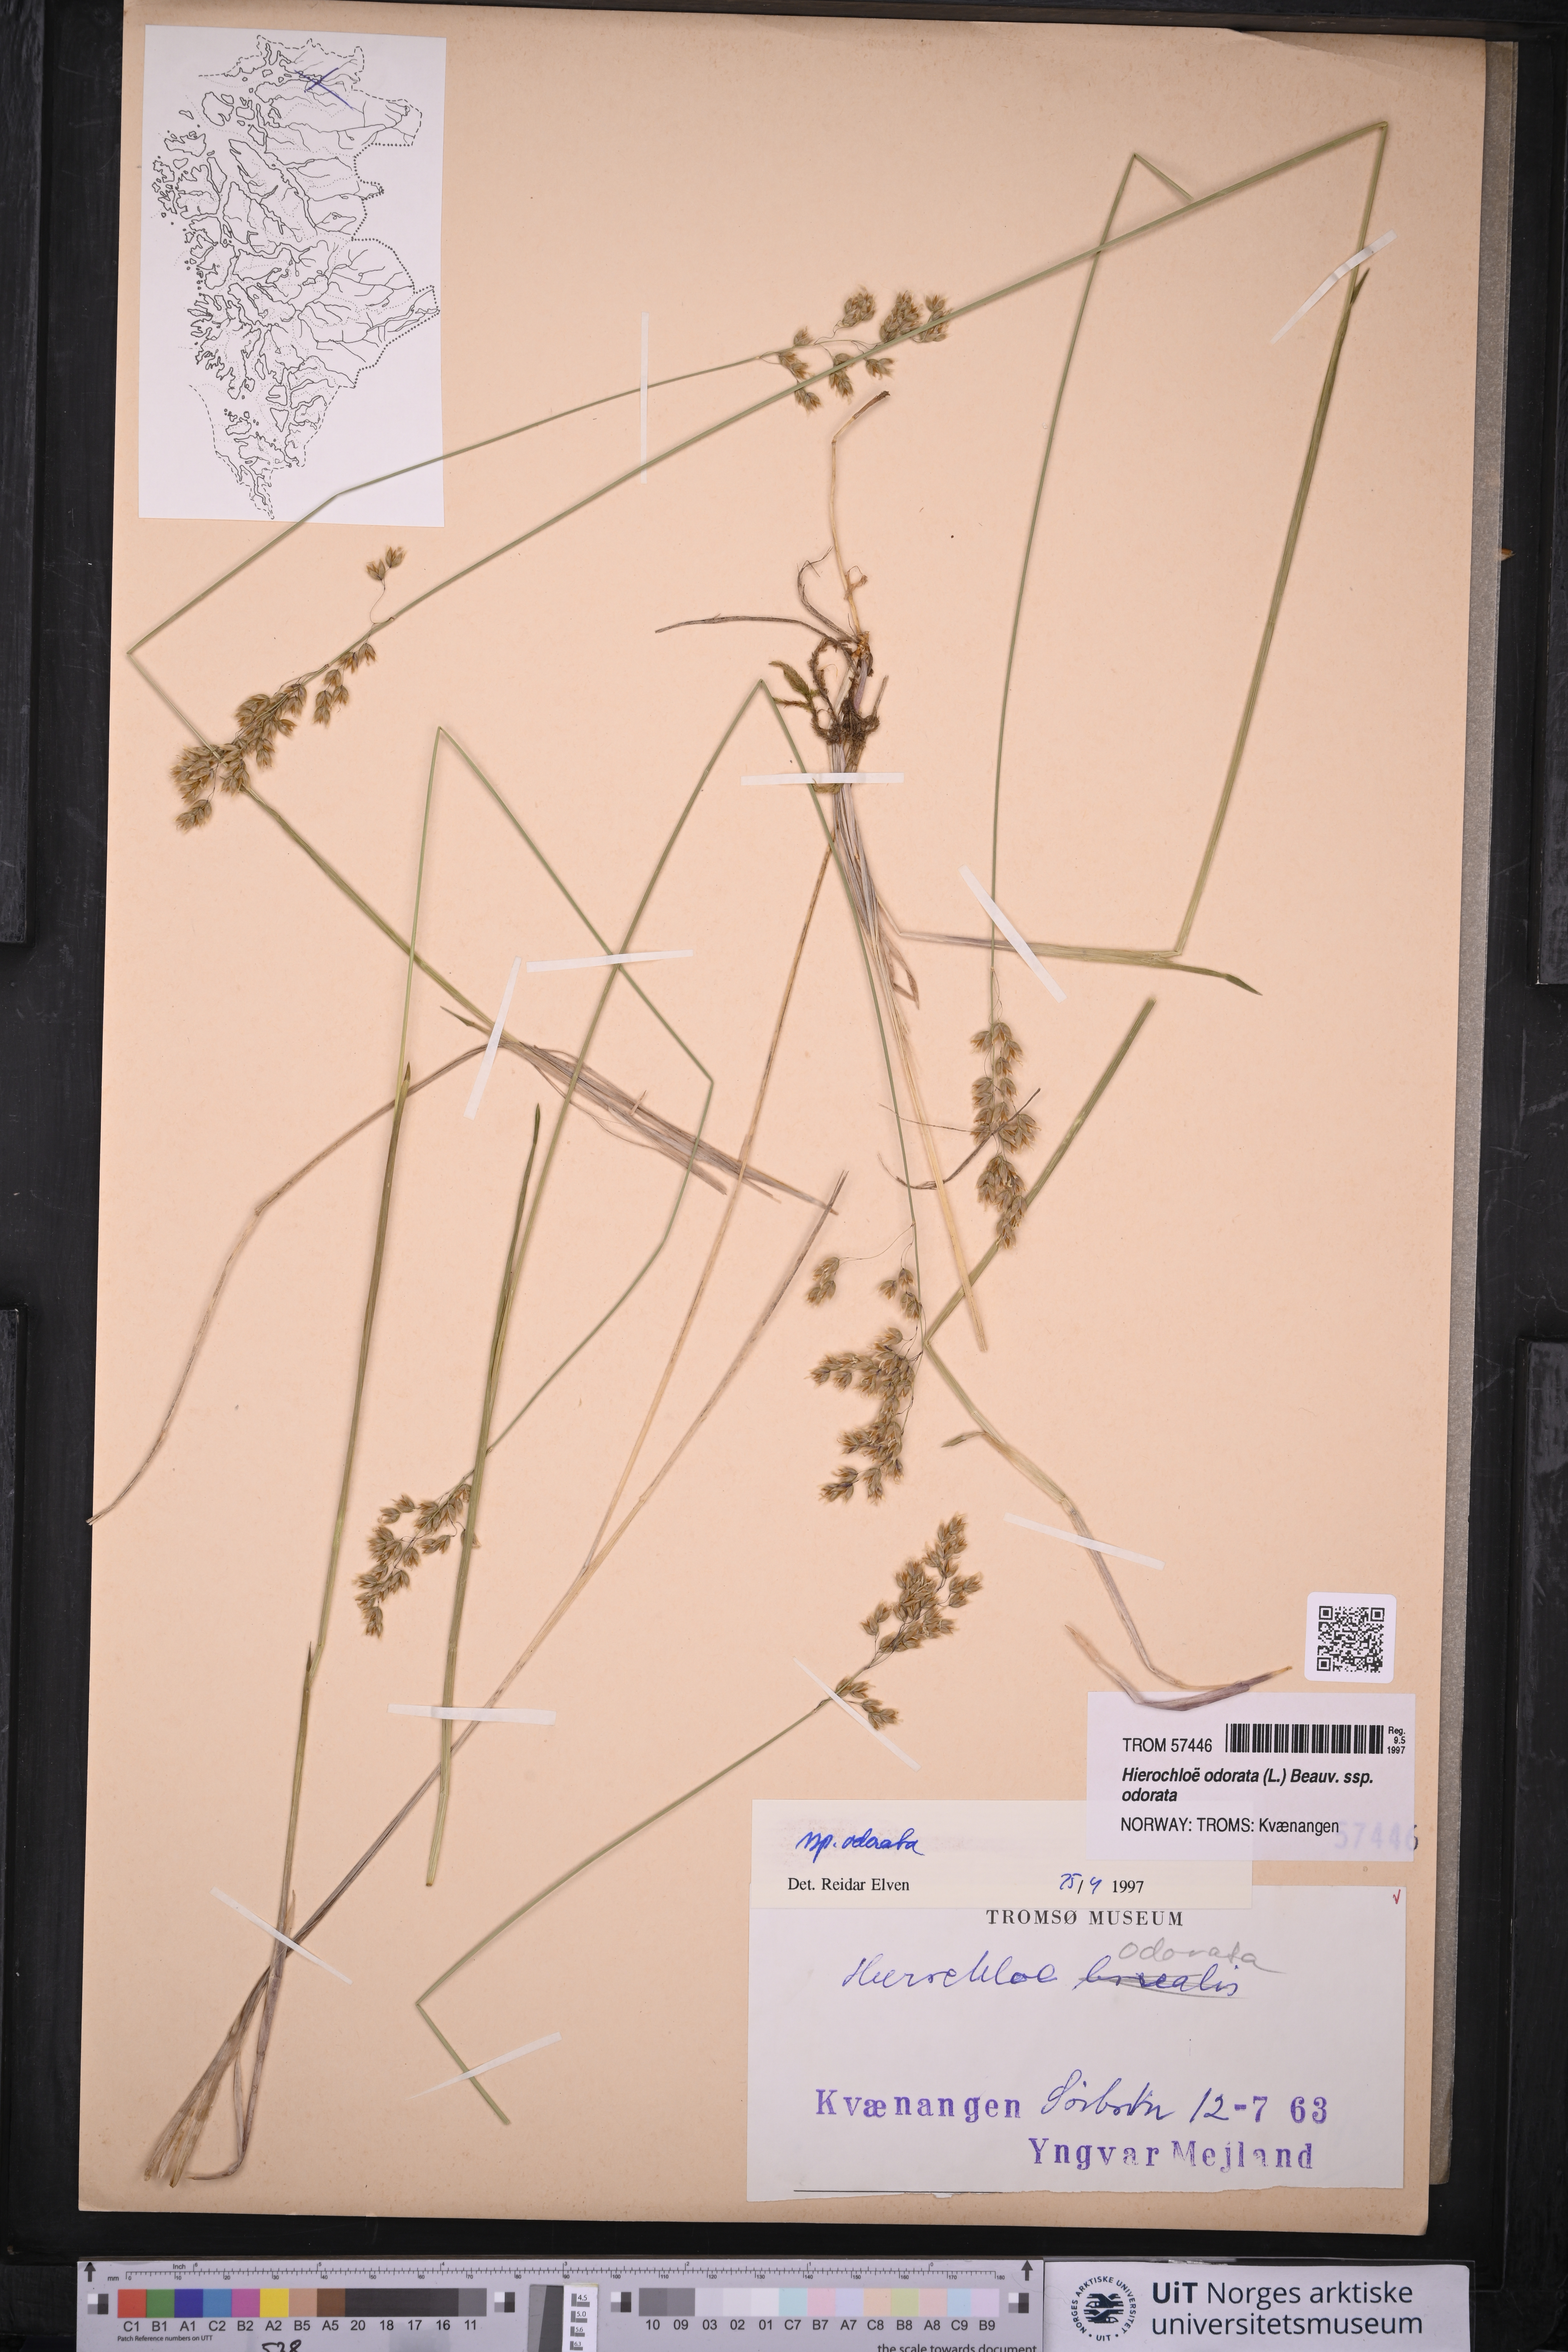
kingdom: Plantae
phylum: Tracheophyta
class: Liliopsida
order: Poales
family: Poaceae
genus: Anthoxanthum
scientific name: Anthoxanthum nitens
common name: Holy grass
